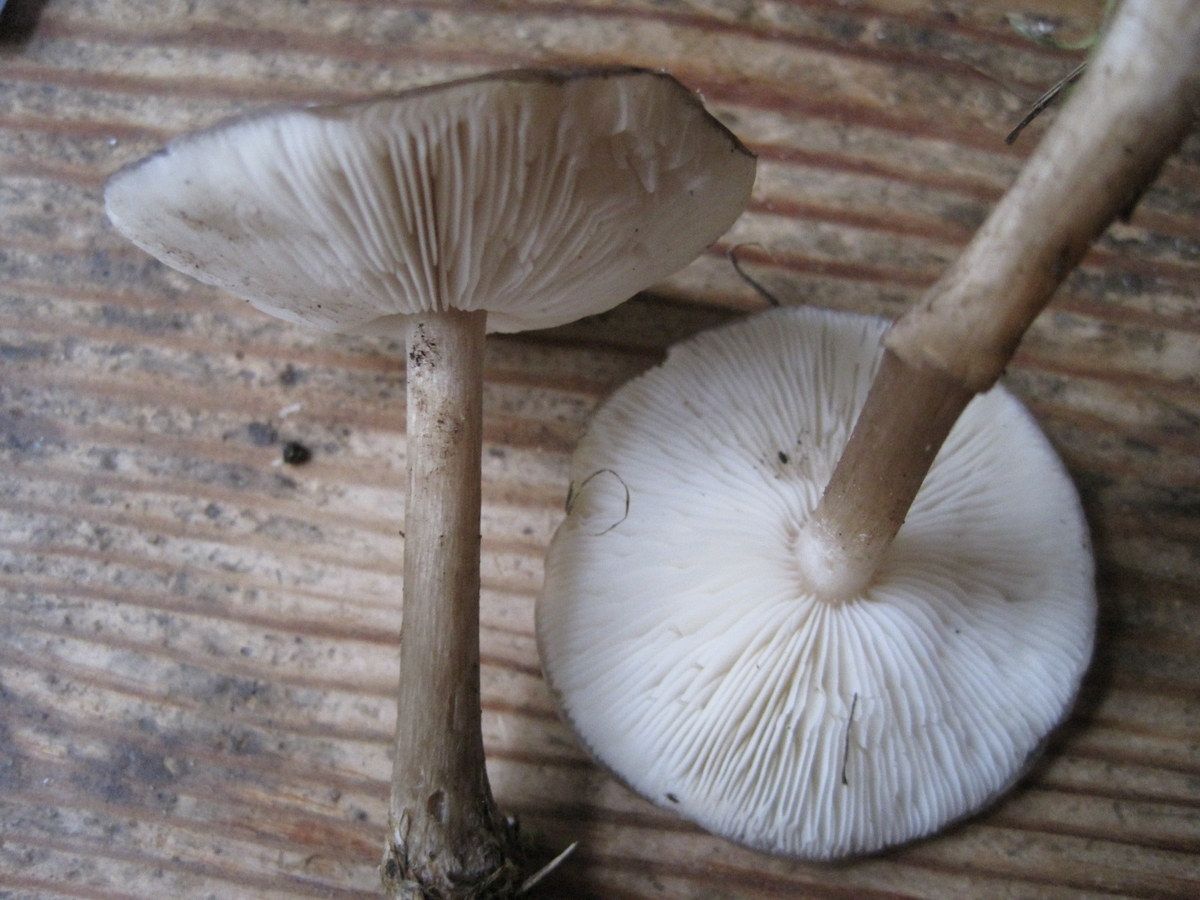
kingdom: Fungi
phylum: Basidiomycota
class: Agaricomycetes
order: Agaricales
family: Tricholomataceae
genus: Melanoleuca
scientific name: Melanoleuca exscissa
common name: gusten munkehat
